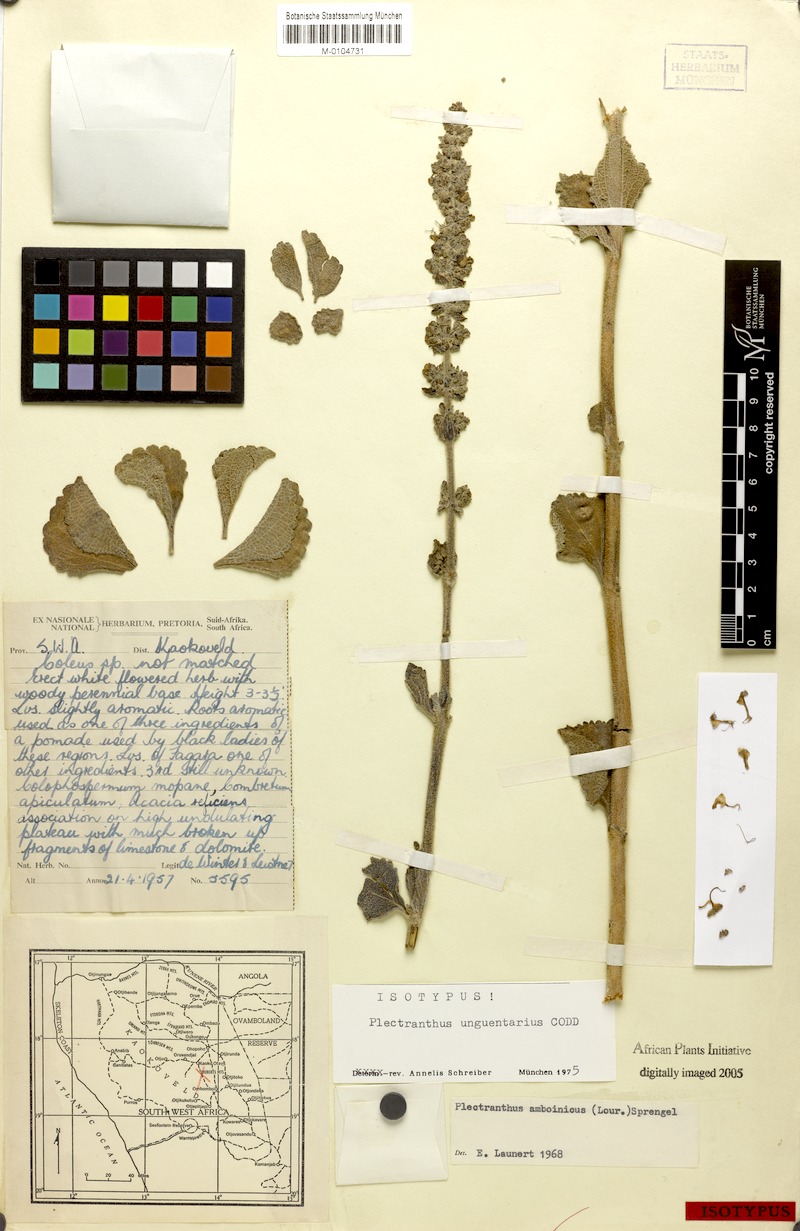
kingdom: Plantae
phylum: Tracheophyta
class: Magnoliopsida
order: Lamiales
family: Lamiaceae
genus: Coleus
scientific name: Coleus unguentarius
